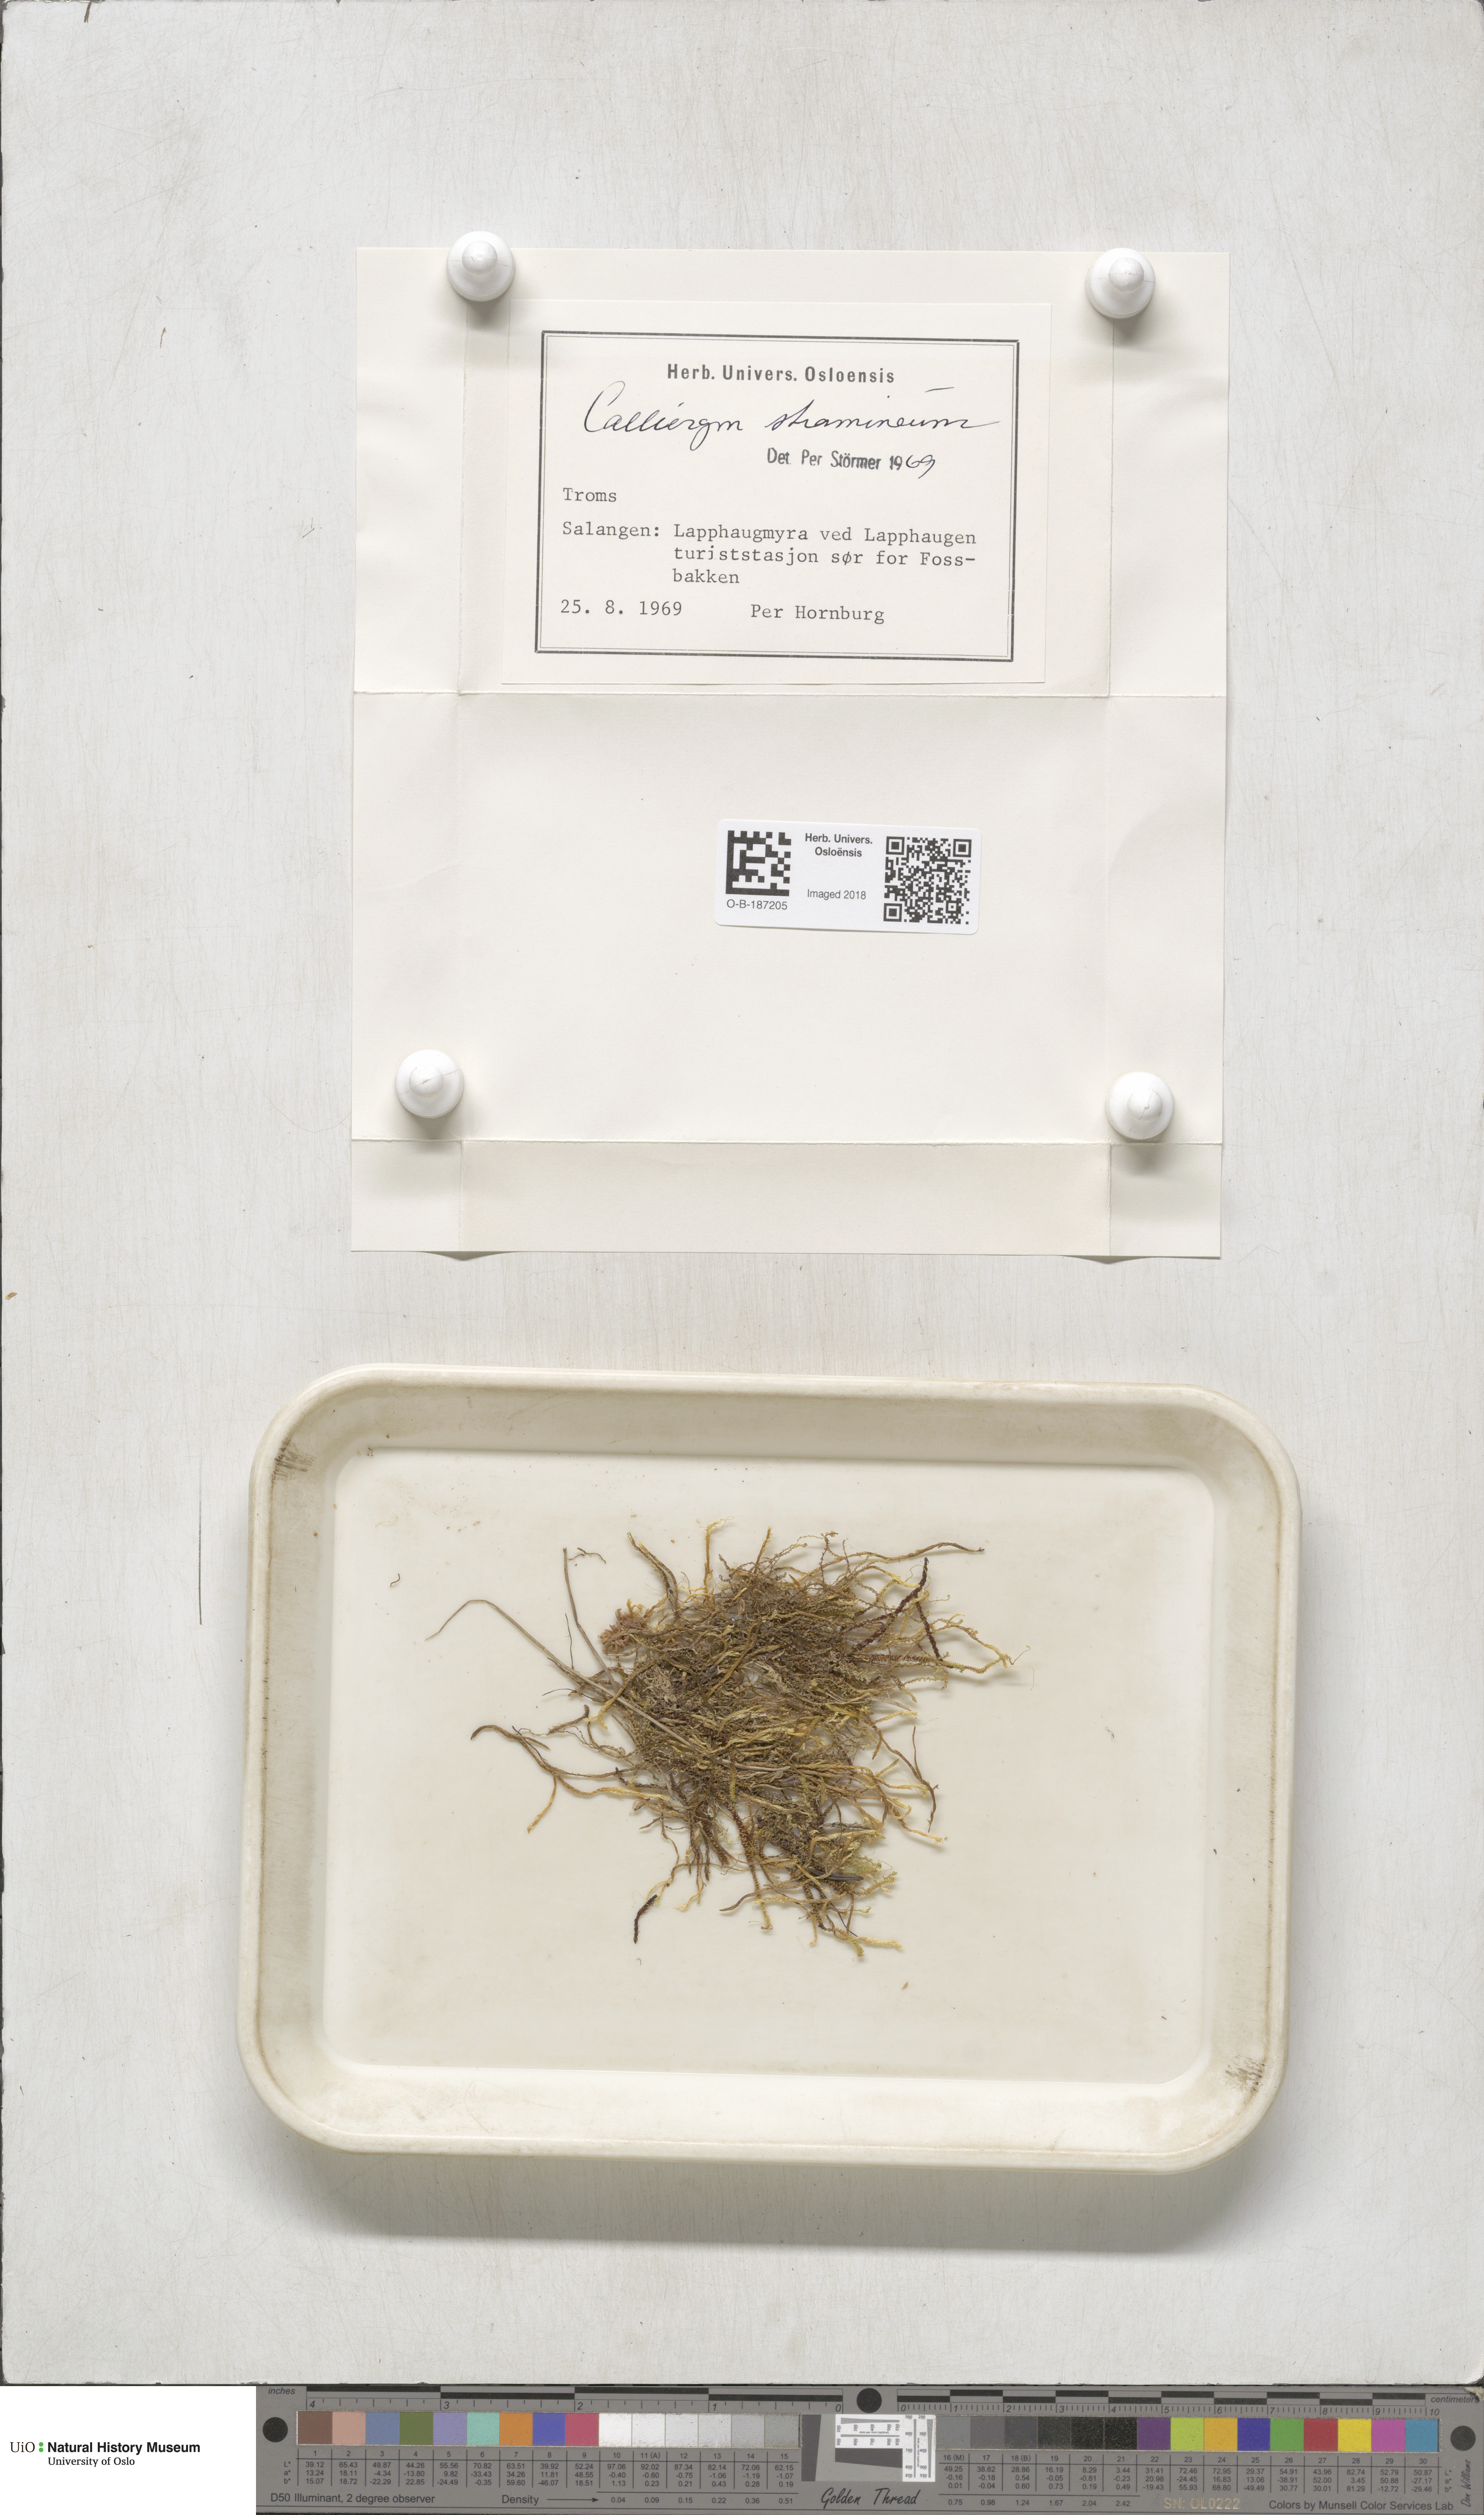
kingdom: Plantae
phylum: Bryophyta
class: Bryopsida
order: Hypnales
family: Calliergonaceae
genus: Straminergon
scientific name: Straminergon stramineum
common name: Straw moss
